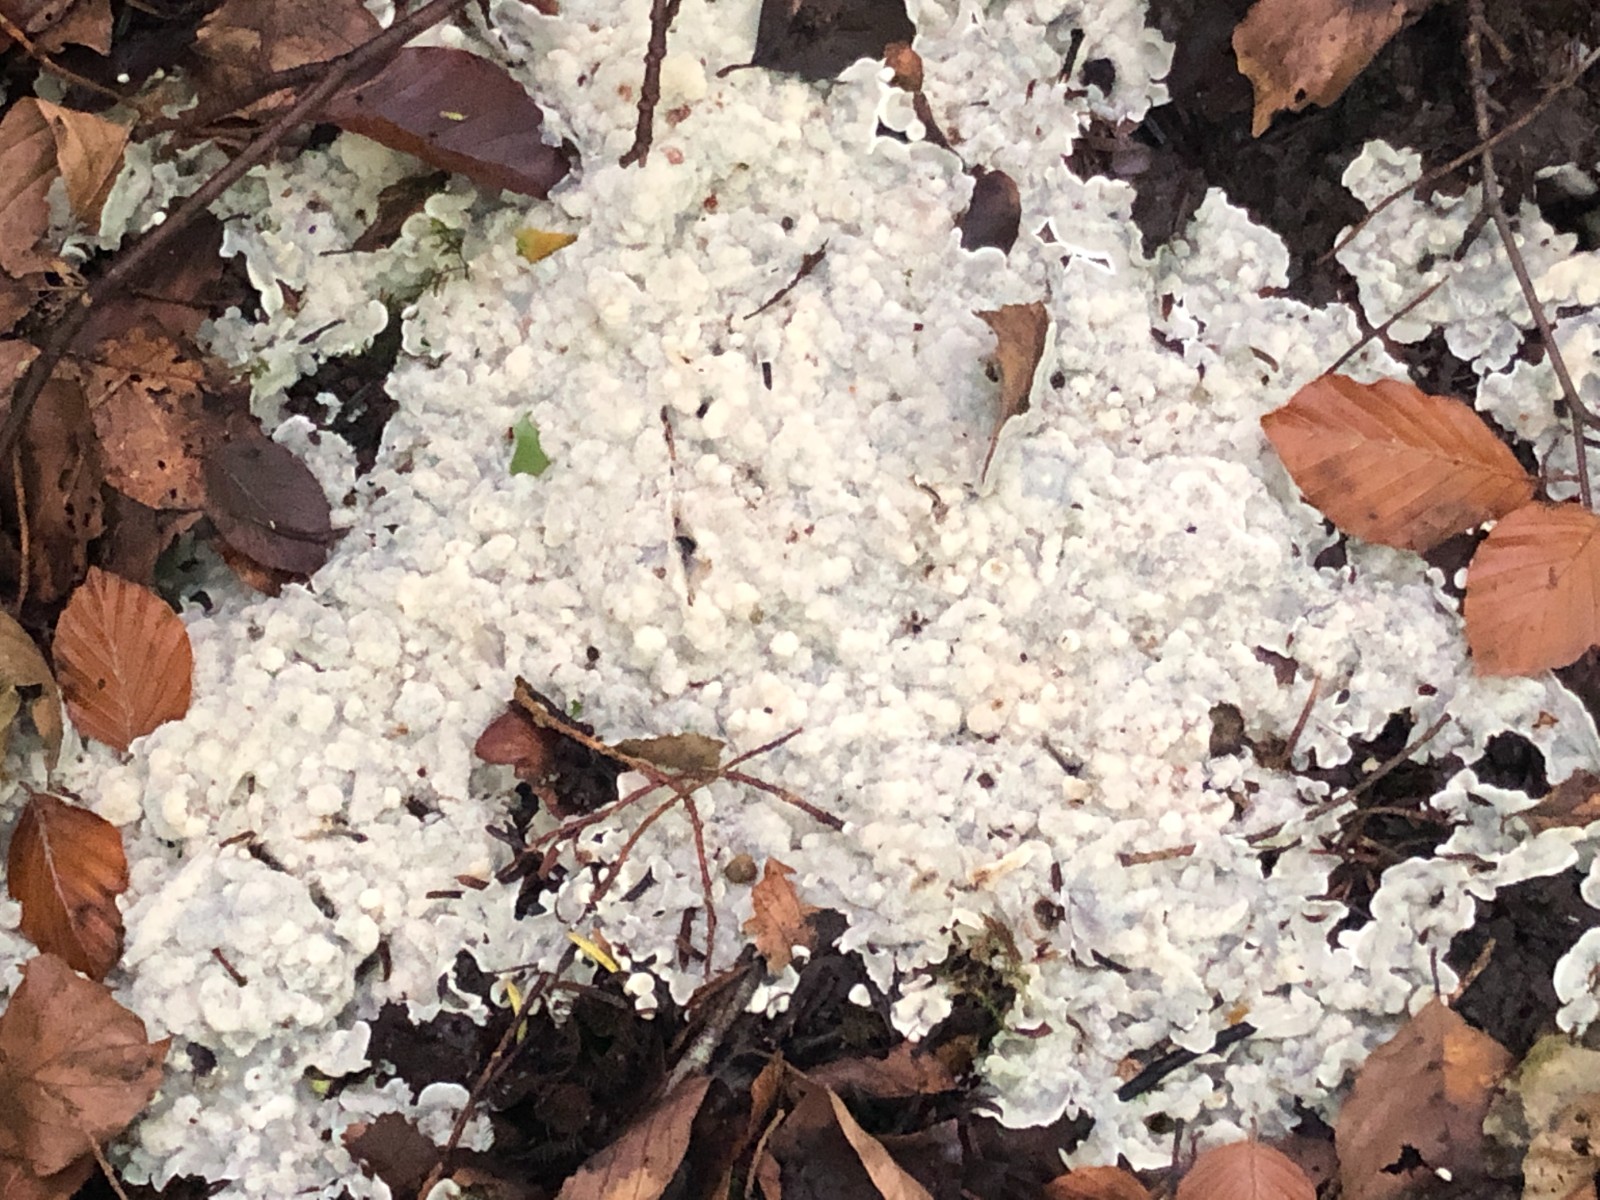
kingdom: Fungi
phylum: Basidiomycota
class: Agaricomycetes
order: Polyporales
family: Meruliaceae
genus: Physisporinus
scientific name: Physisporinus vitreus
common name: mastesvamp
